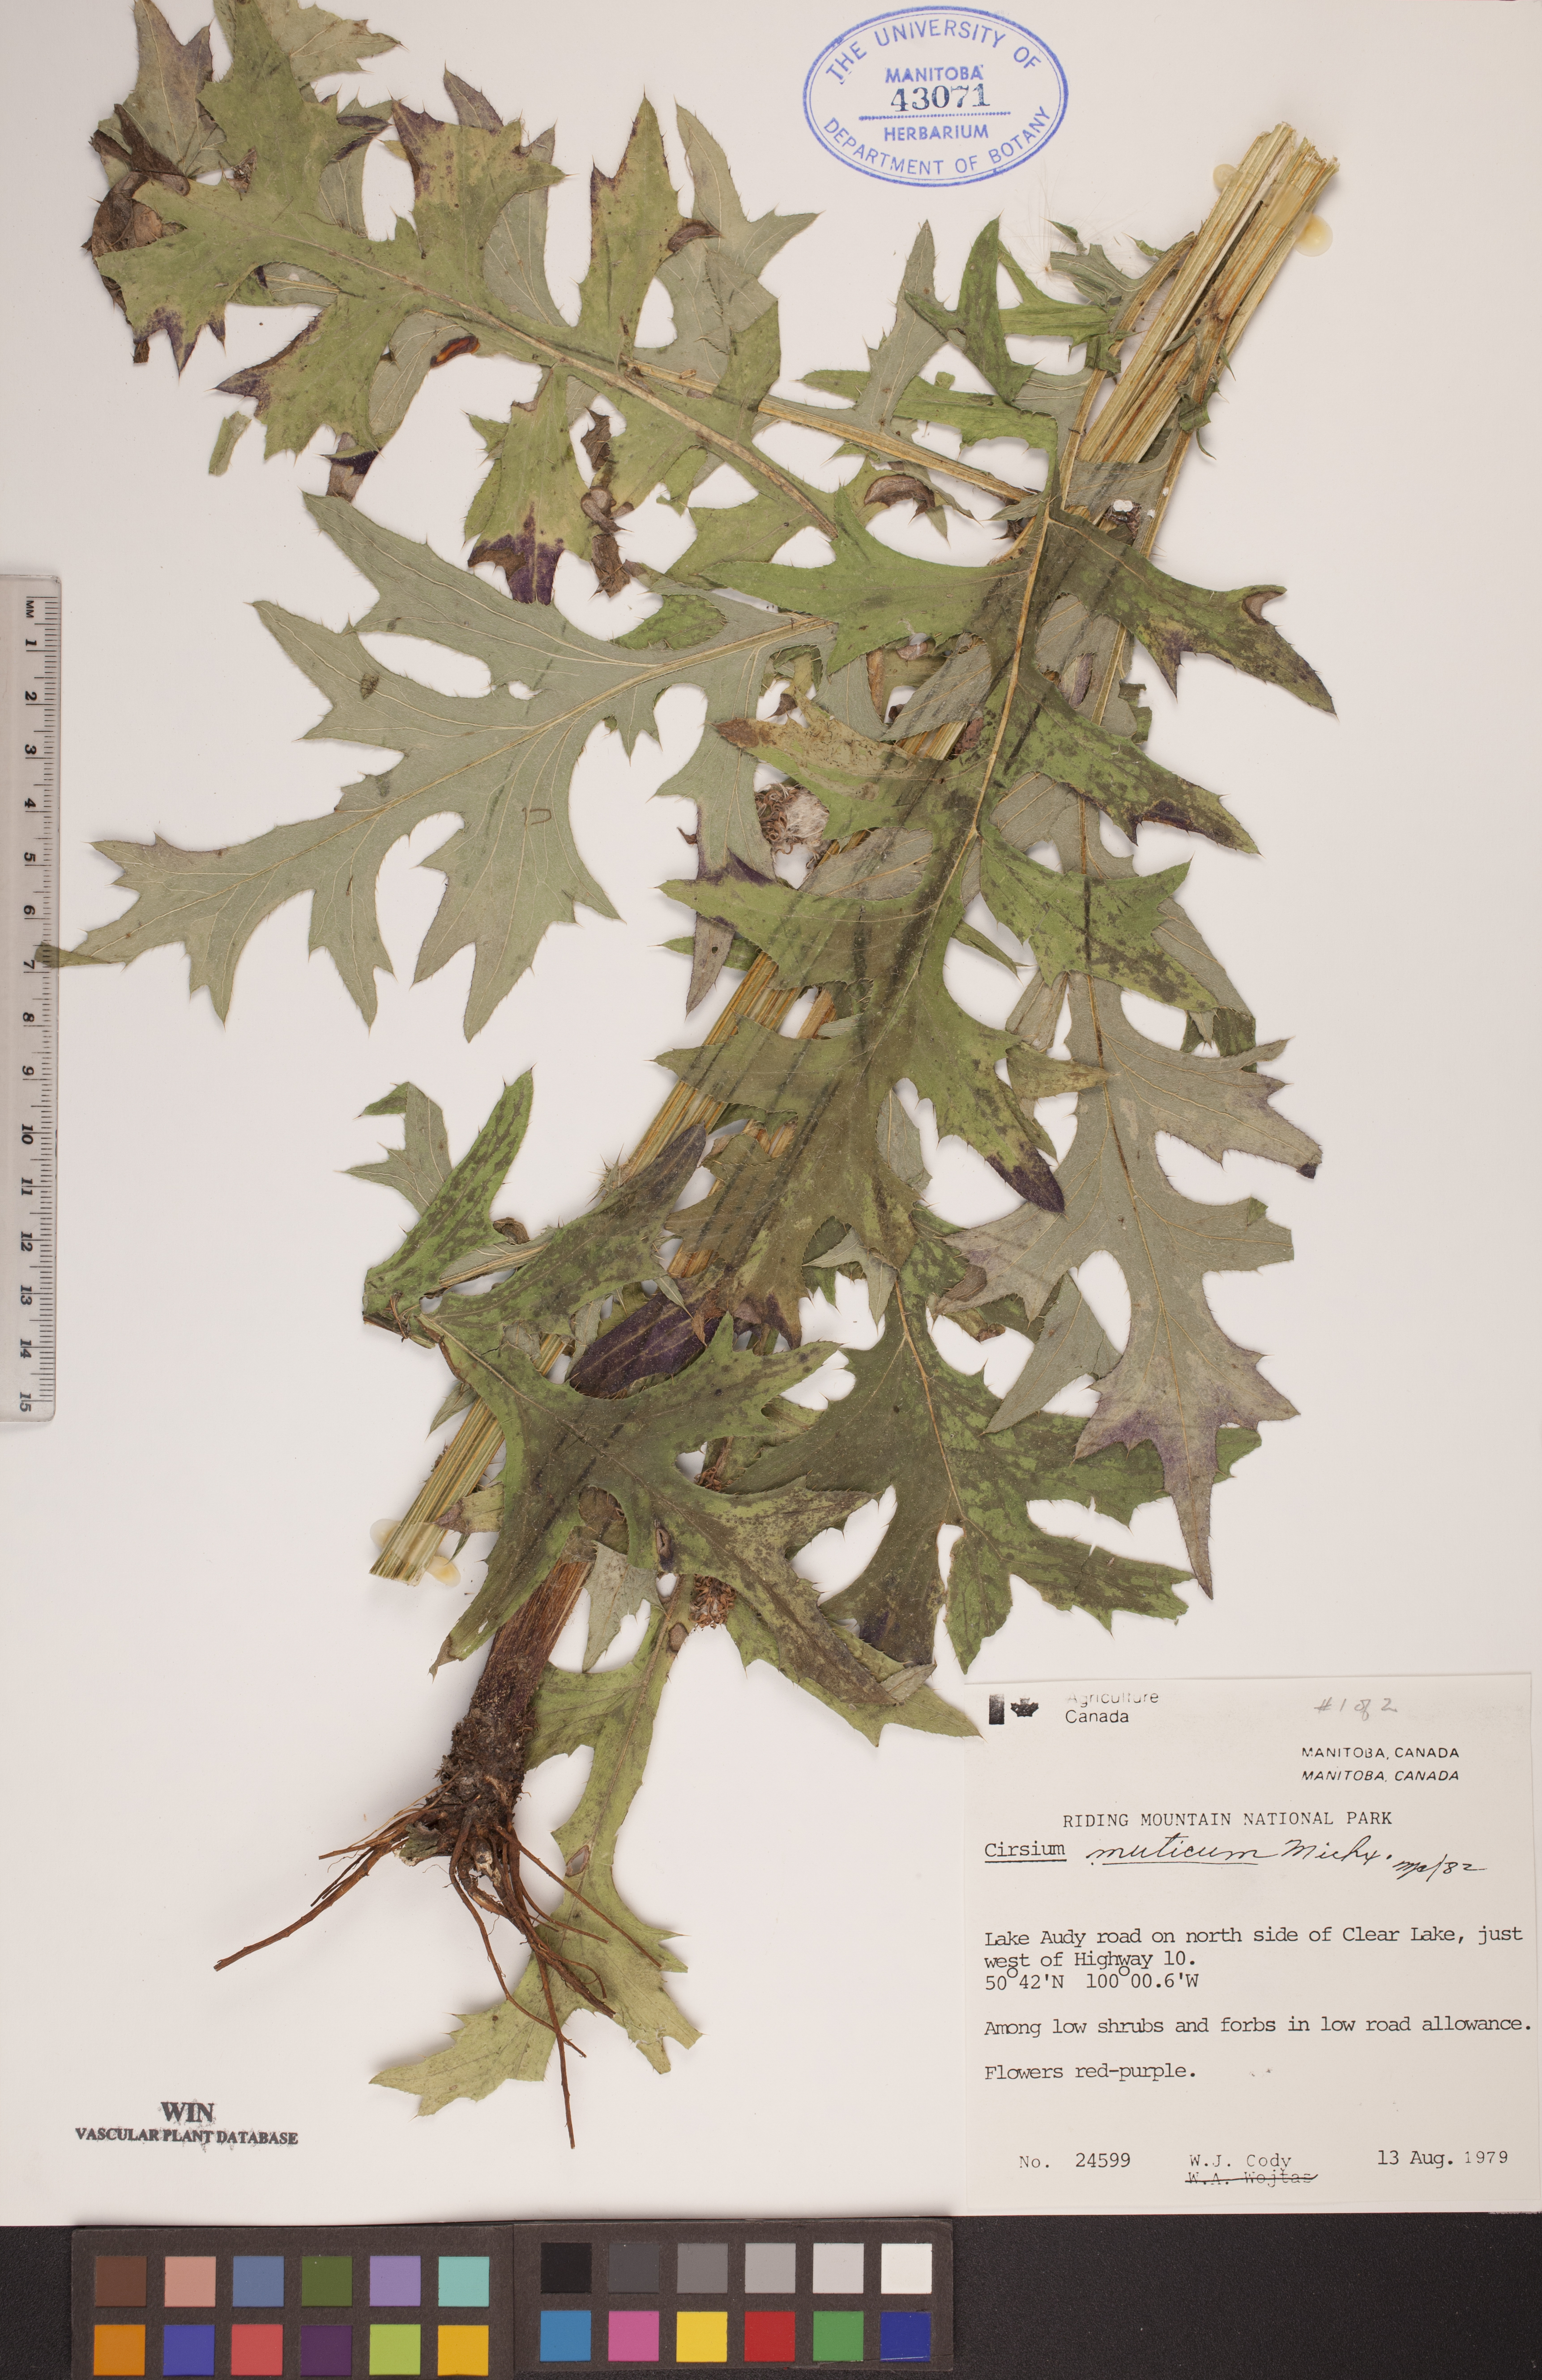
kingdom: Plantae
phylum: Tracheophyta
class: Magnoliopsida
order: Asterales
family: Asteraceae
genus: Cirsium
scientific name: Cirsium muticum
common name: Dunce-nettle
